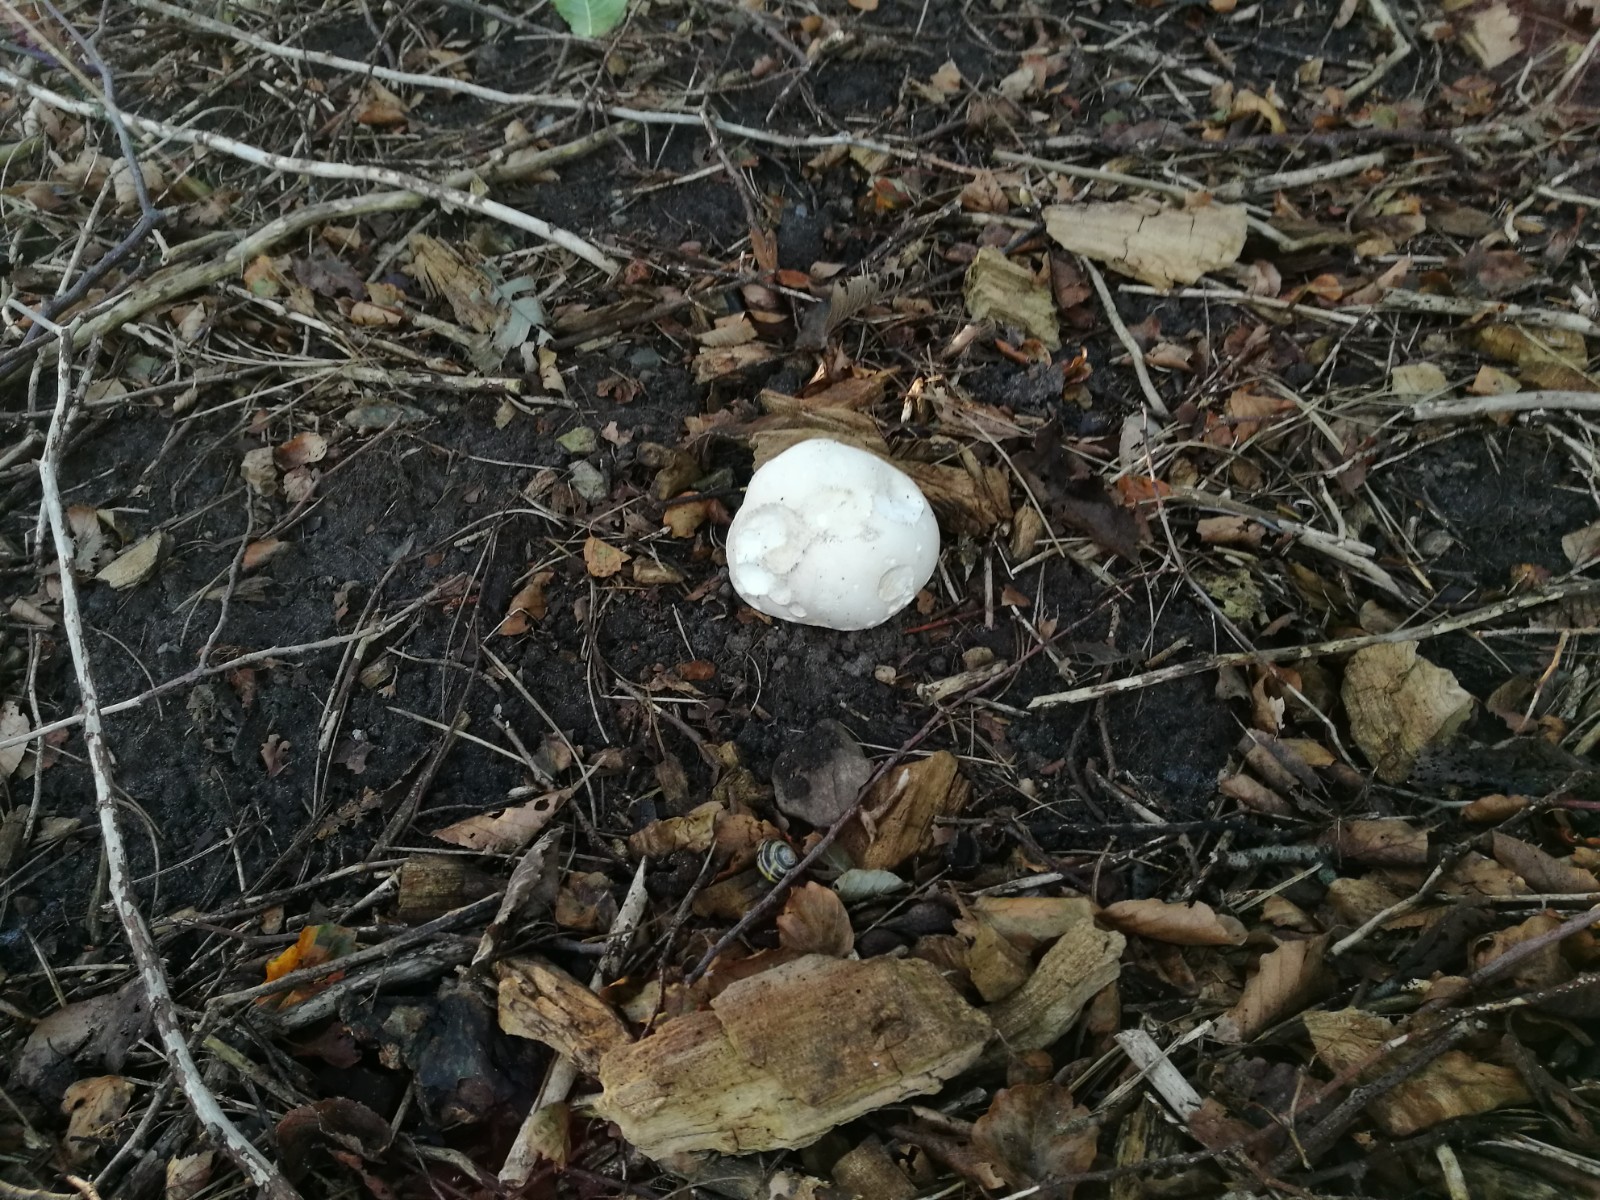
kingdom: Fungi
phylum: Basidiomycota
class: Agaricomycetes
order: Agaricales
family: Lycoperdaceae
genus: Calvatia
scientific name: Calvatia gigantea
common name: kæmpestøvbold
